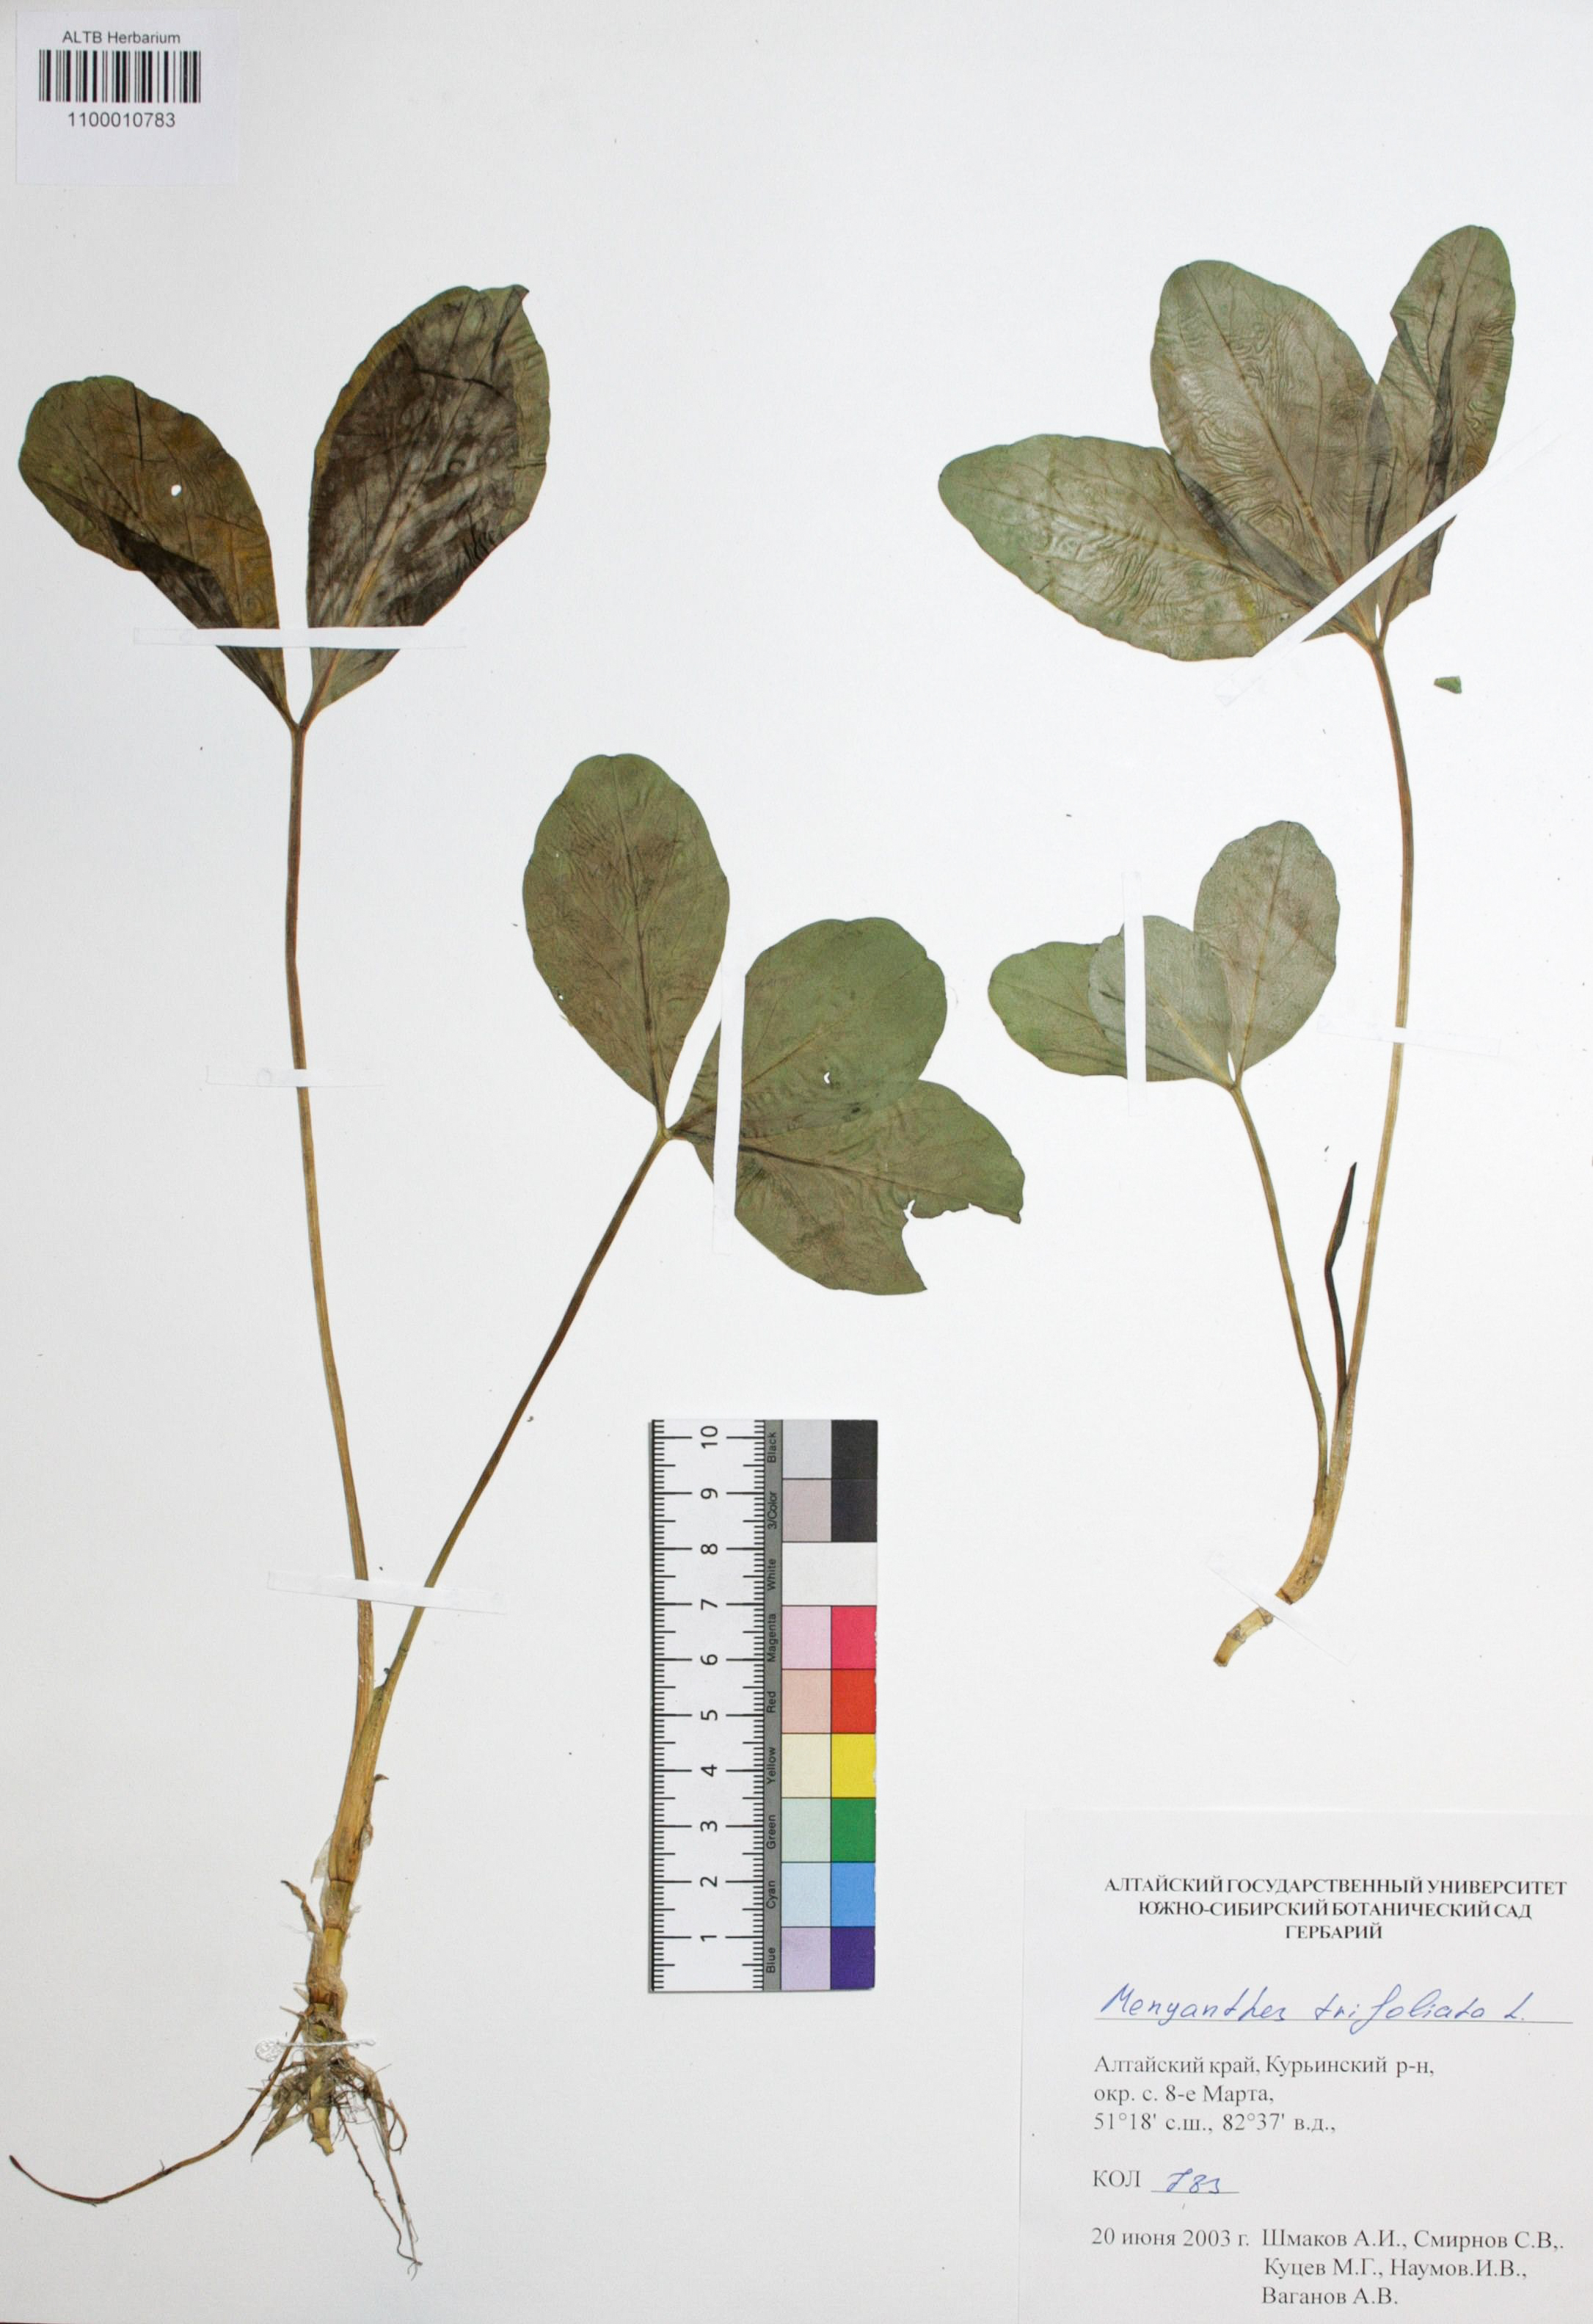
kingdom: Plantae
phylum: Tracheophyta
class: Magnoliopsida
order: Asterales
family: Menyanthaceae
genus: Menyanthes
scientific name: Menyanthes trifoliata
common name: Bogbean
